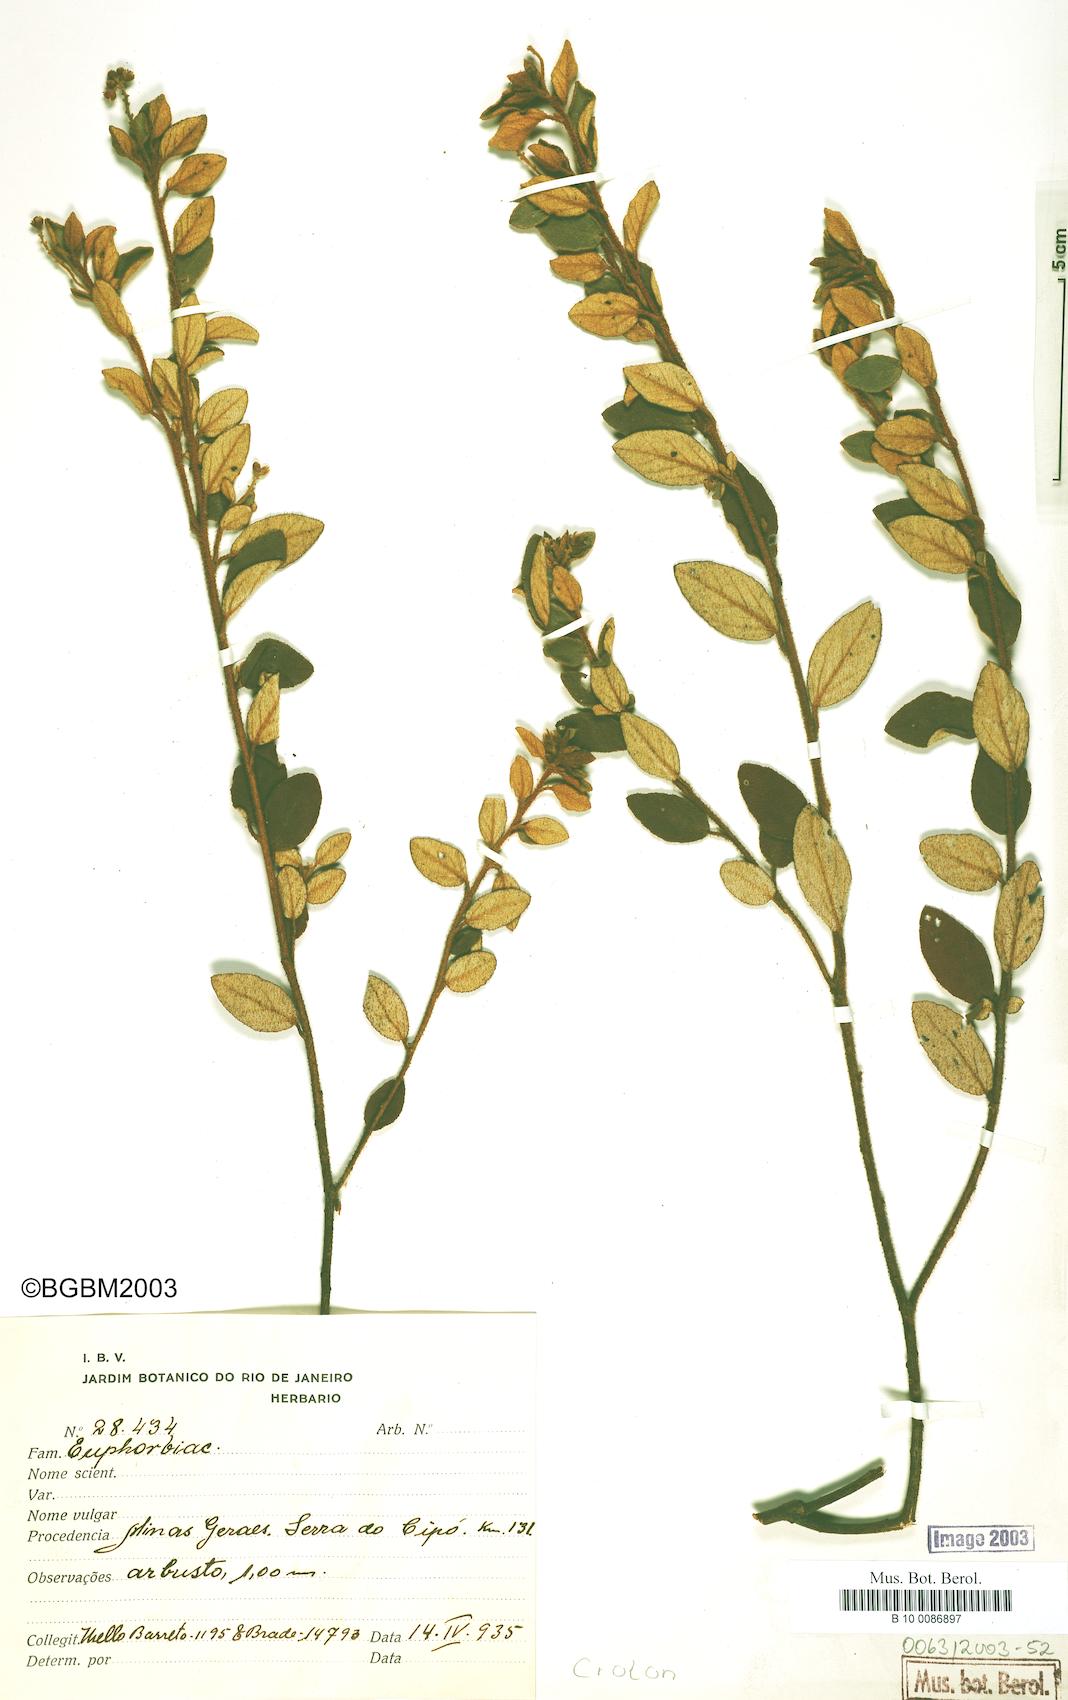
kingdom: Plantae
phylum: Tracheophyta
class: Magnoliopsida
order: Malpighiales
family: Euphorbiaceae
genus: Croton
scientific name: Croton
